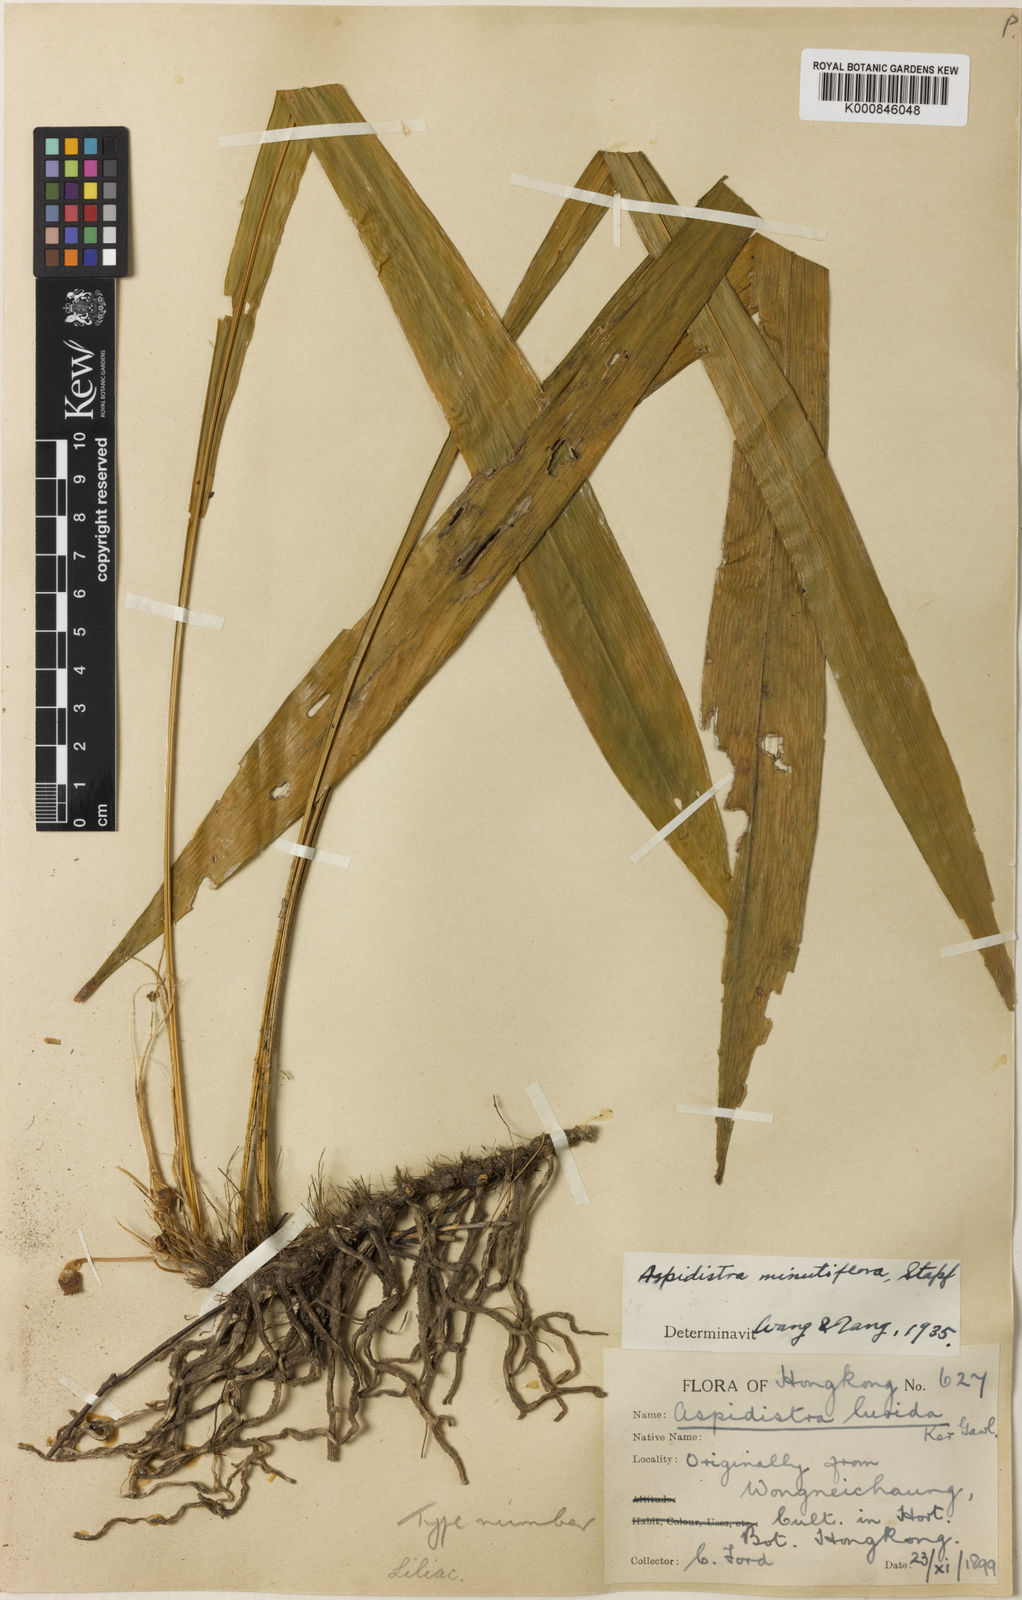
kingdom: Plantae
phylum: Tracheophyta
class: Liliopsida
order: Asparagales
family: Asparagaceae
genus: Aspidistra
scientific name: Aspidistra minutiflora
